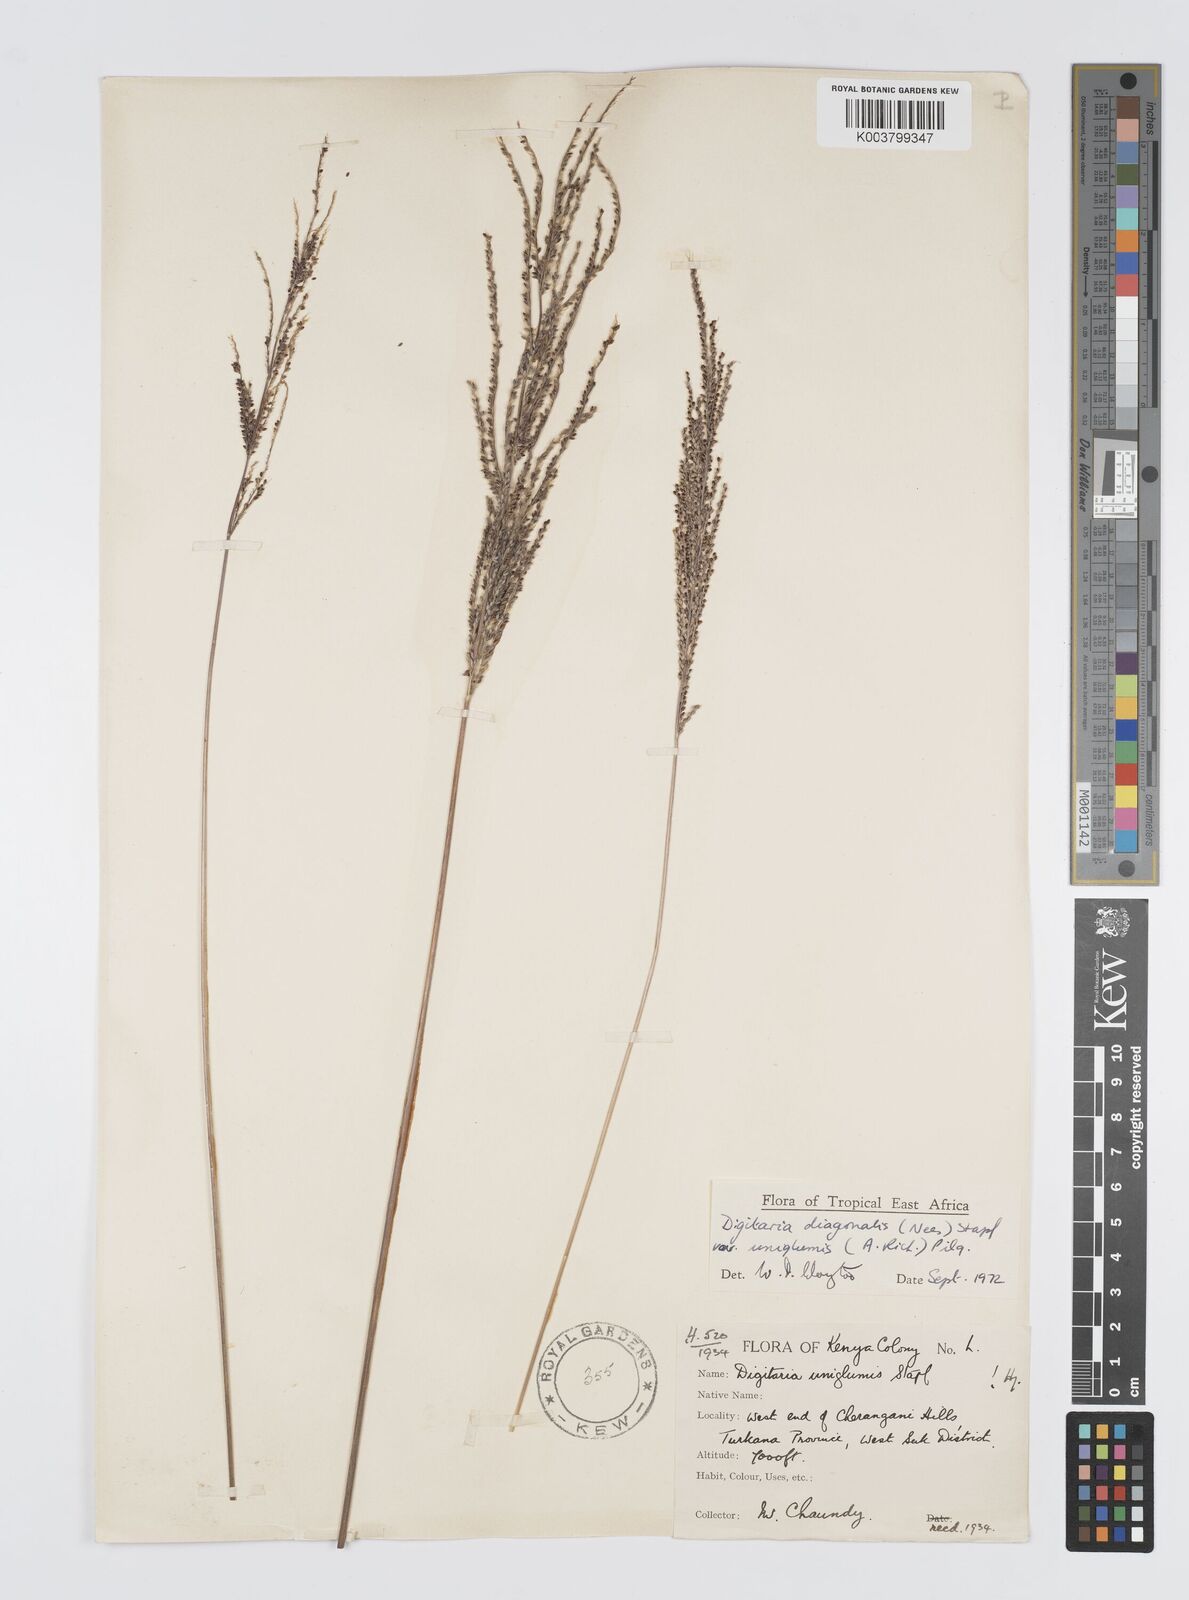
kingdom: Plantae
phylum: Tracheophyta
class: Liliopsida
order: Poales
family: Poaceae
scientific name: Poaceae
